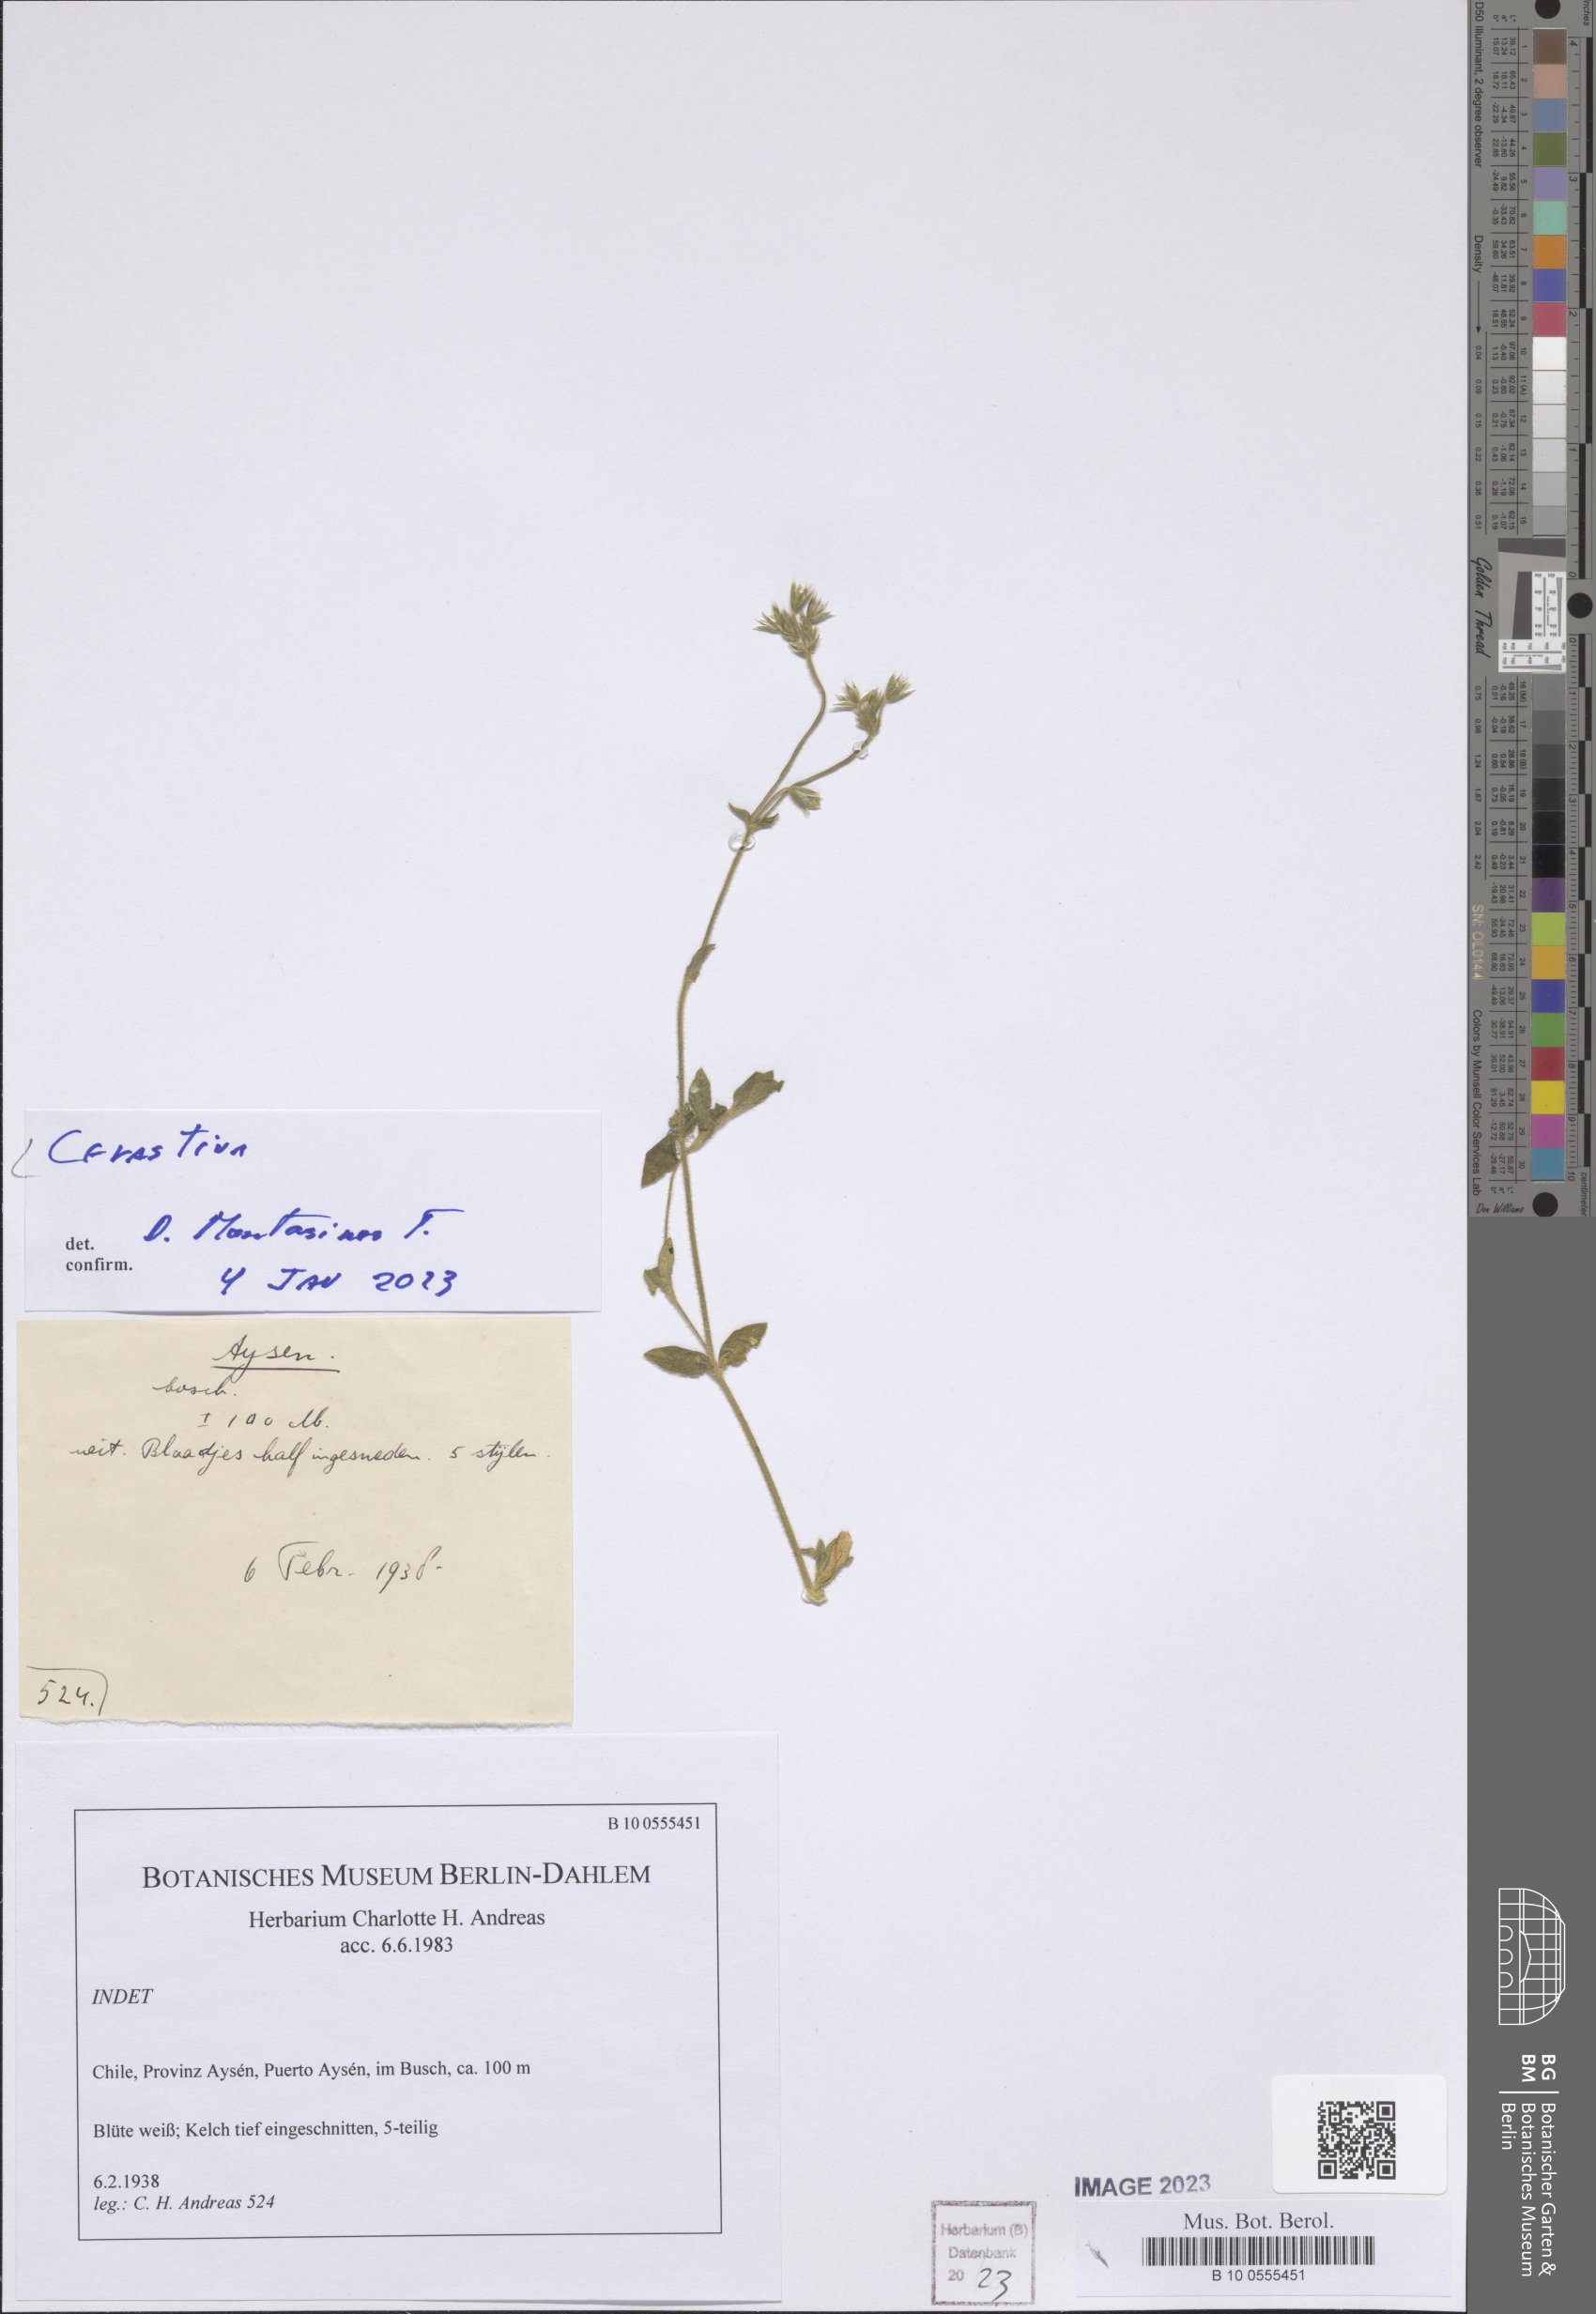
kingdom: Plantae
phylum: Tracheophyta
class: Magnoliopsida
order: Caryophyllales
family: Caryophyllaceae
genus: Cerastium
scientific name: Cerastium
